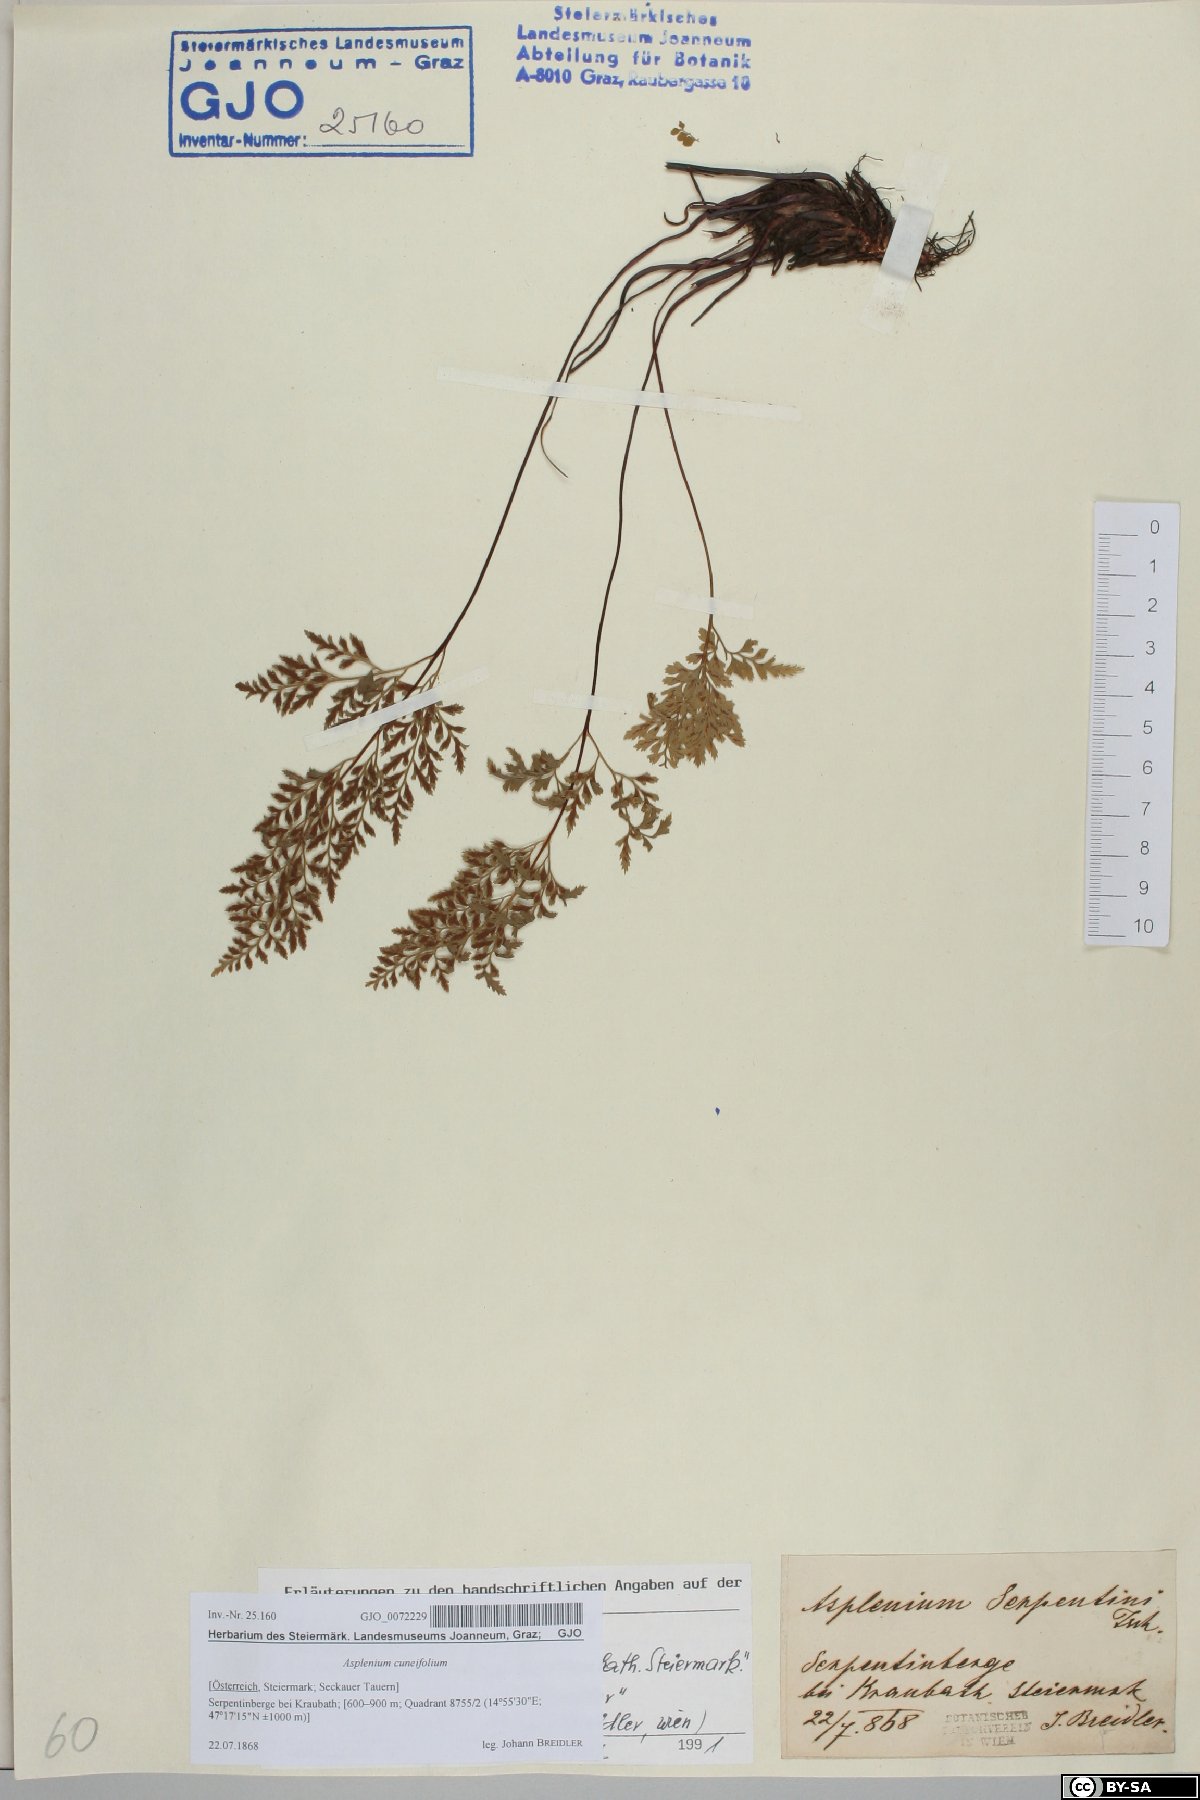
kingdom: Plantae
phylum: Tracheophyta
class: Polypodiopsida
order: Polypodiales
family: Aspleniaceae
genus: Asplenium
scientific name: Asplenium cuneifolium
